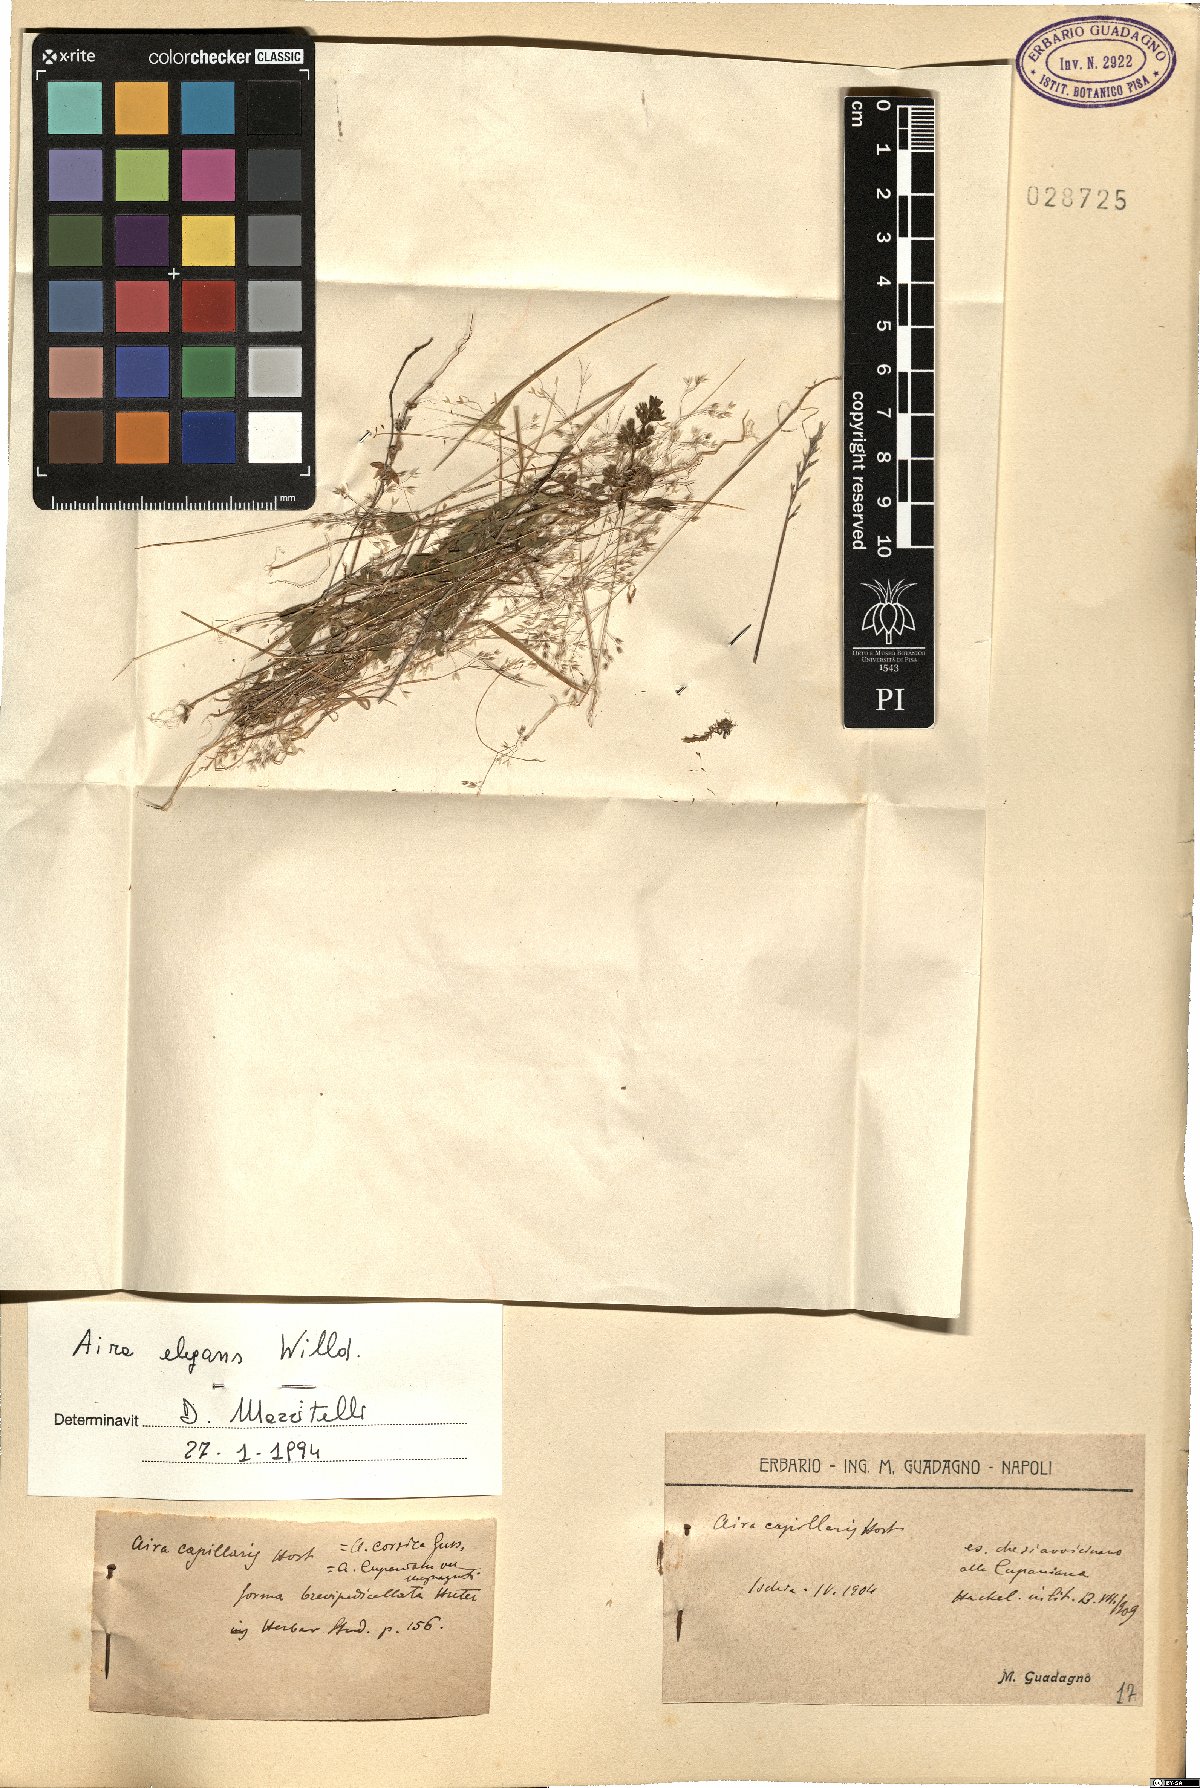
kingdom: Plantae
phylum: Tracheophyta
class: Liliopsida
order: Poales
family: Poaceae
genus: Aira
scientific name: Aira elegans
